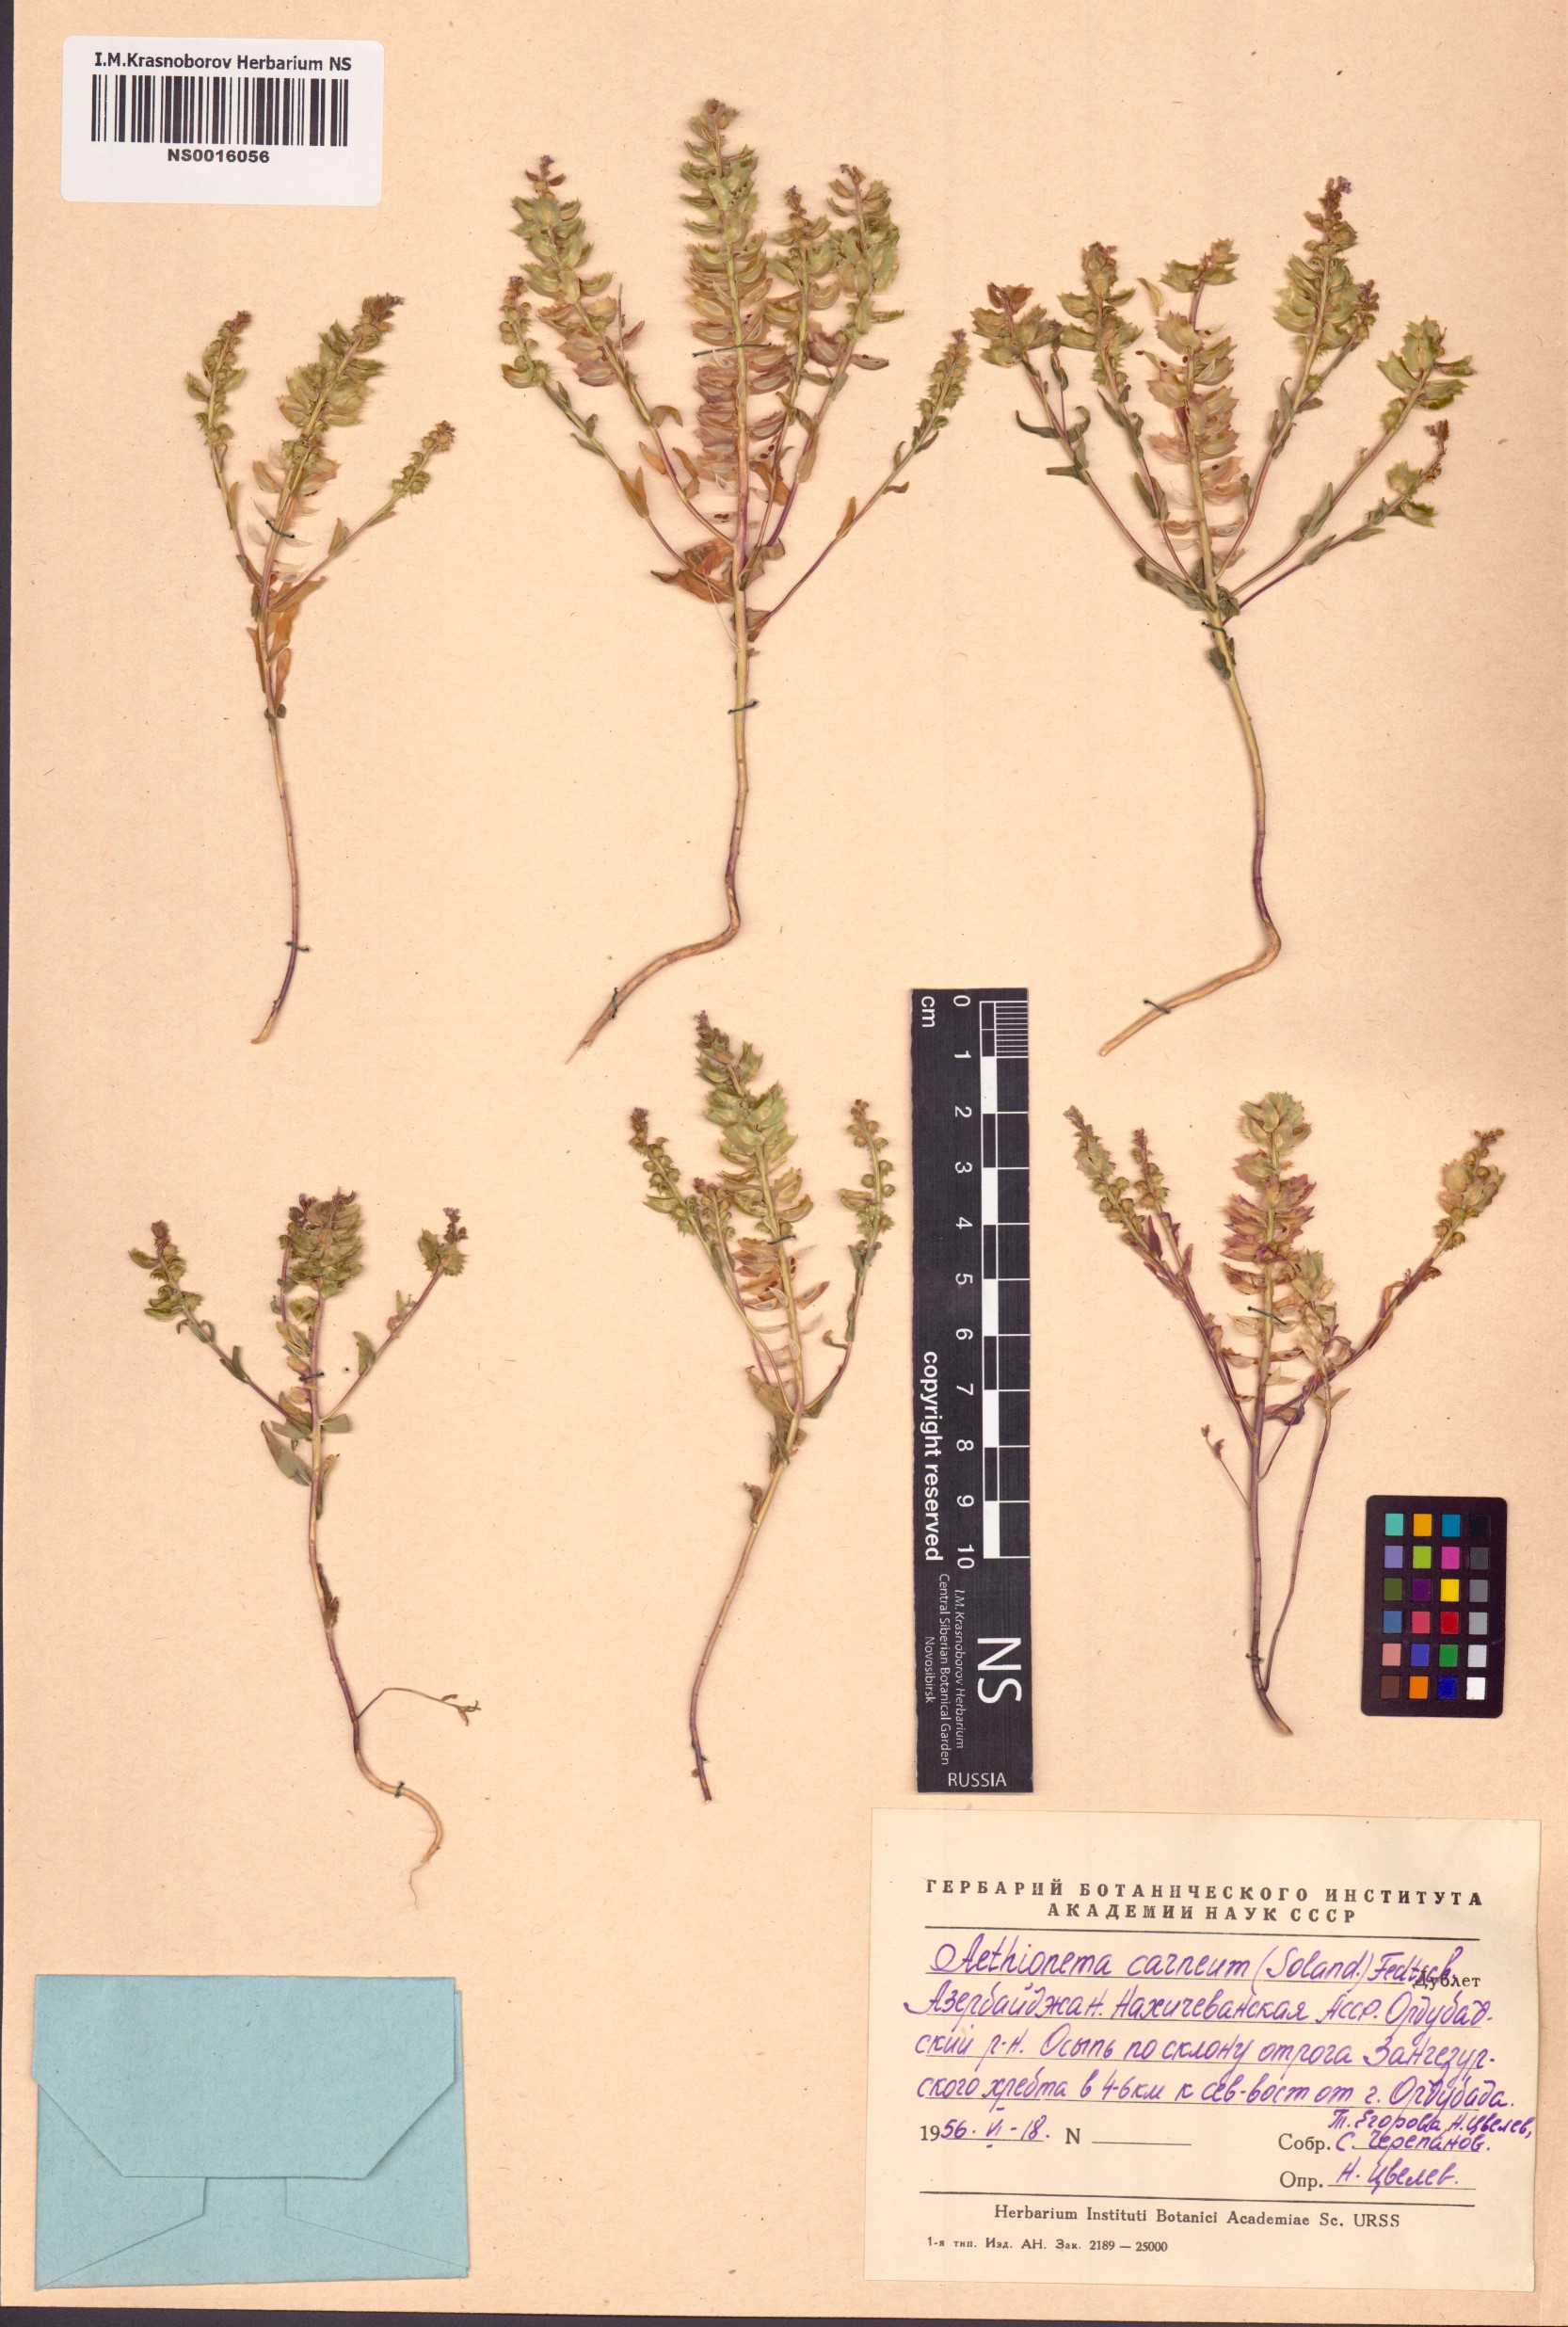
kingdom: Plantae
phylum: Tracheophyta
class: Magnoliopsida
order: Brassicales
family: Brassicaceae
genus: Aethionema
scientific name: Aethionema carneum
